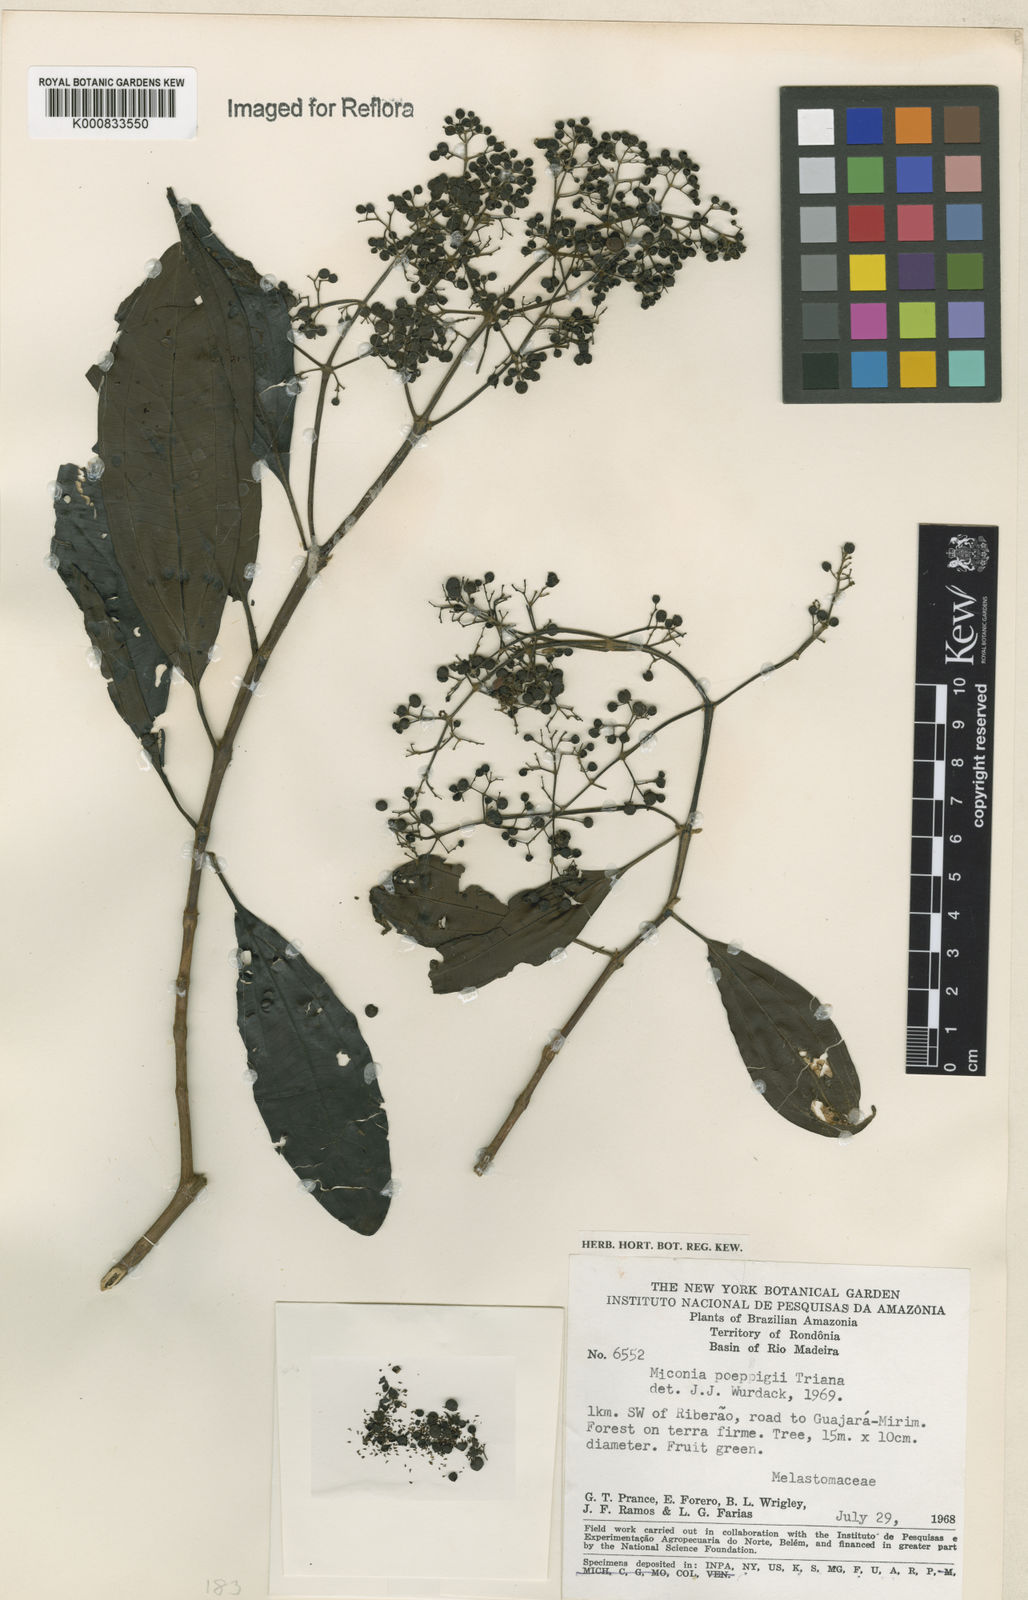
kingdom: Plantae
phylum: Tracheophyta
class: Magnoliopsida
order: Myrtales
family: Melastomataceae
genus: Miconia
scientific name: Miconia poeppigii
